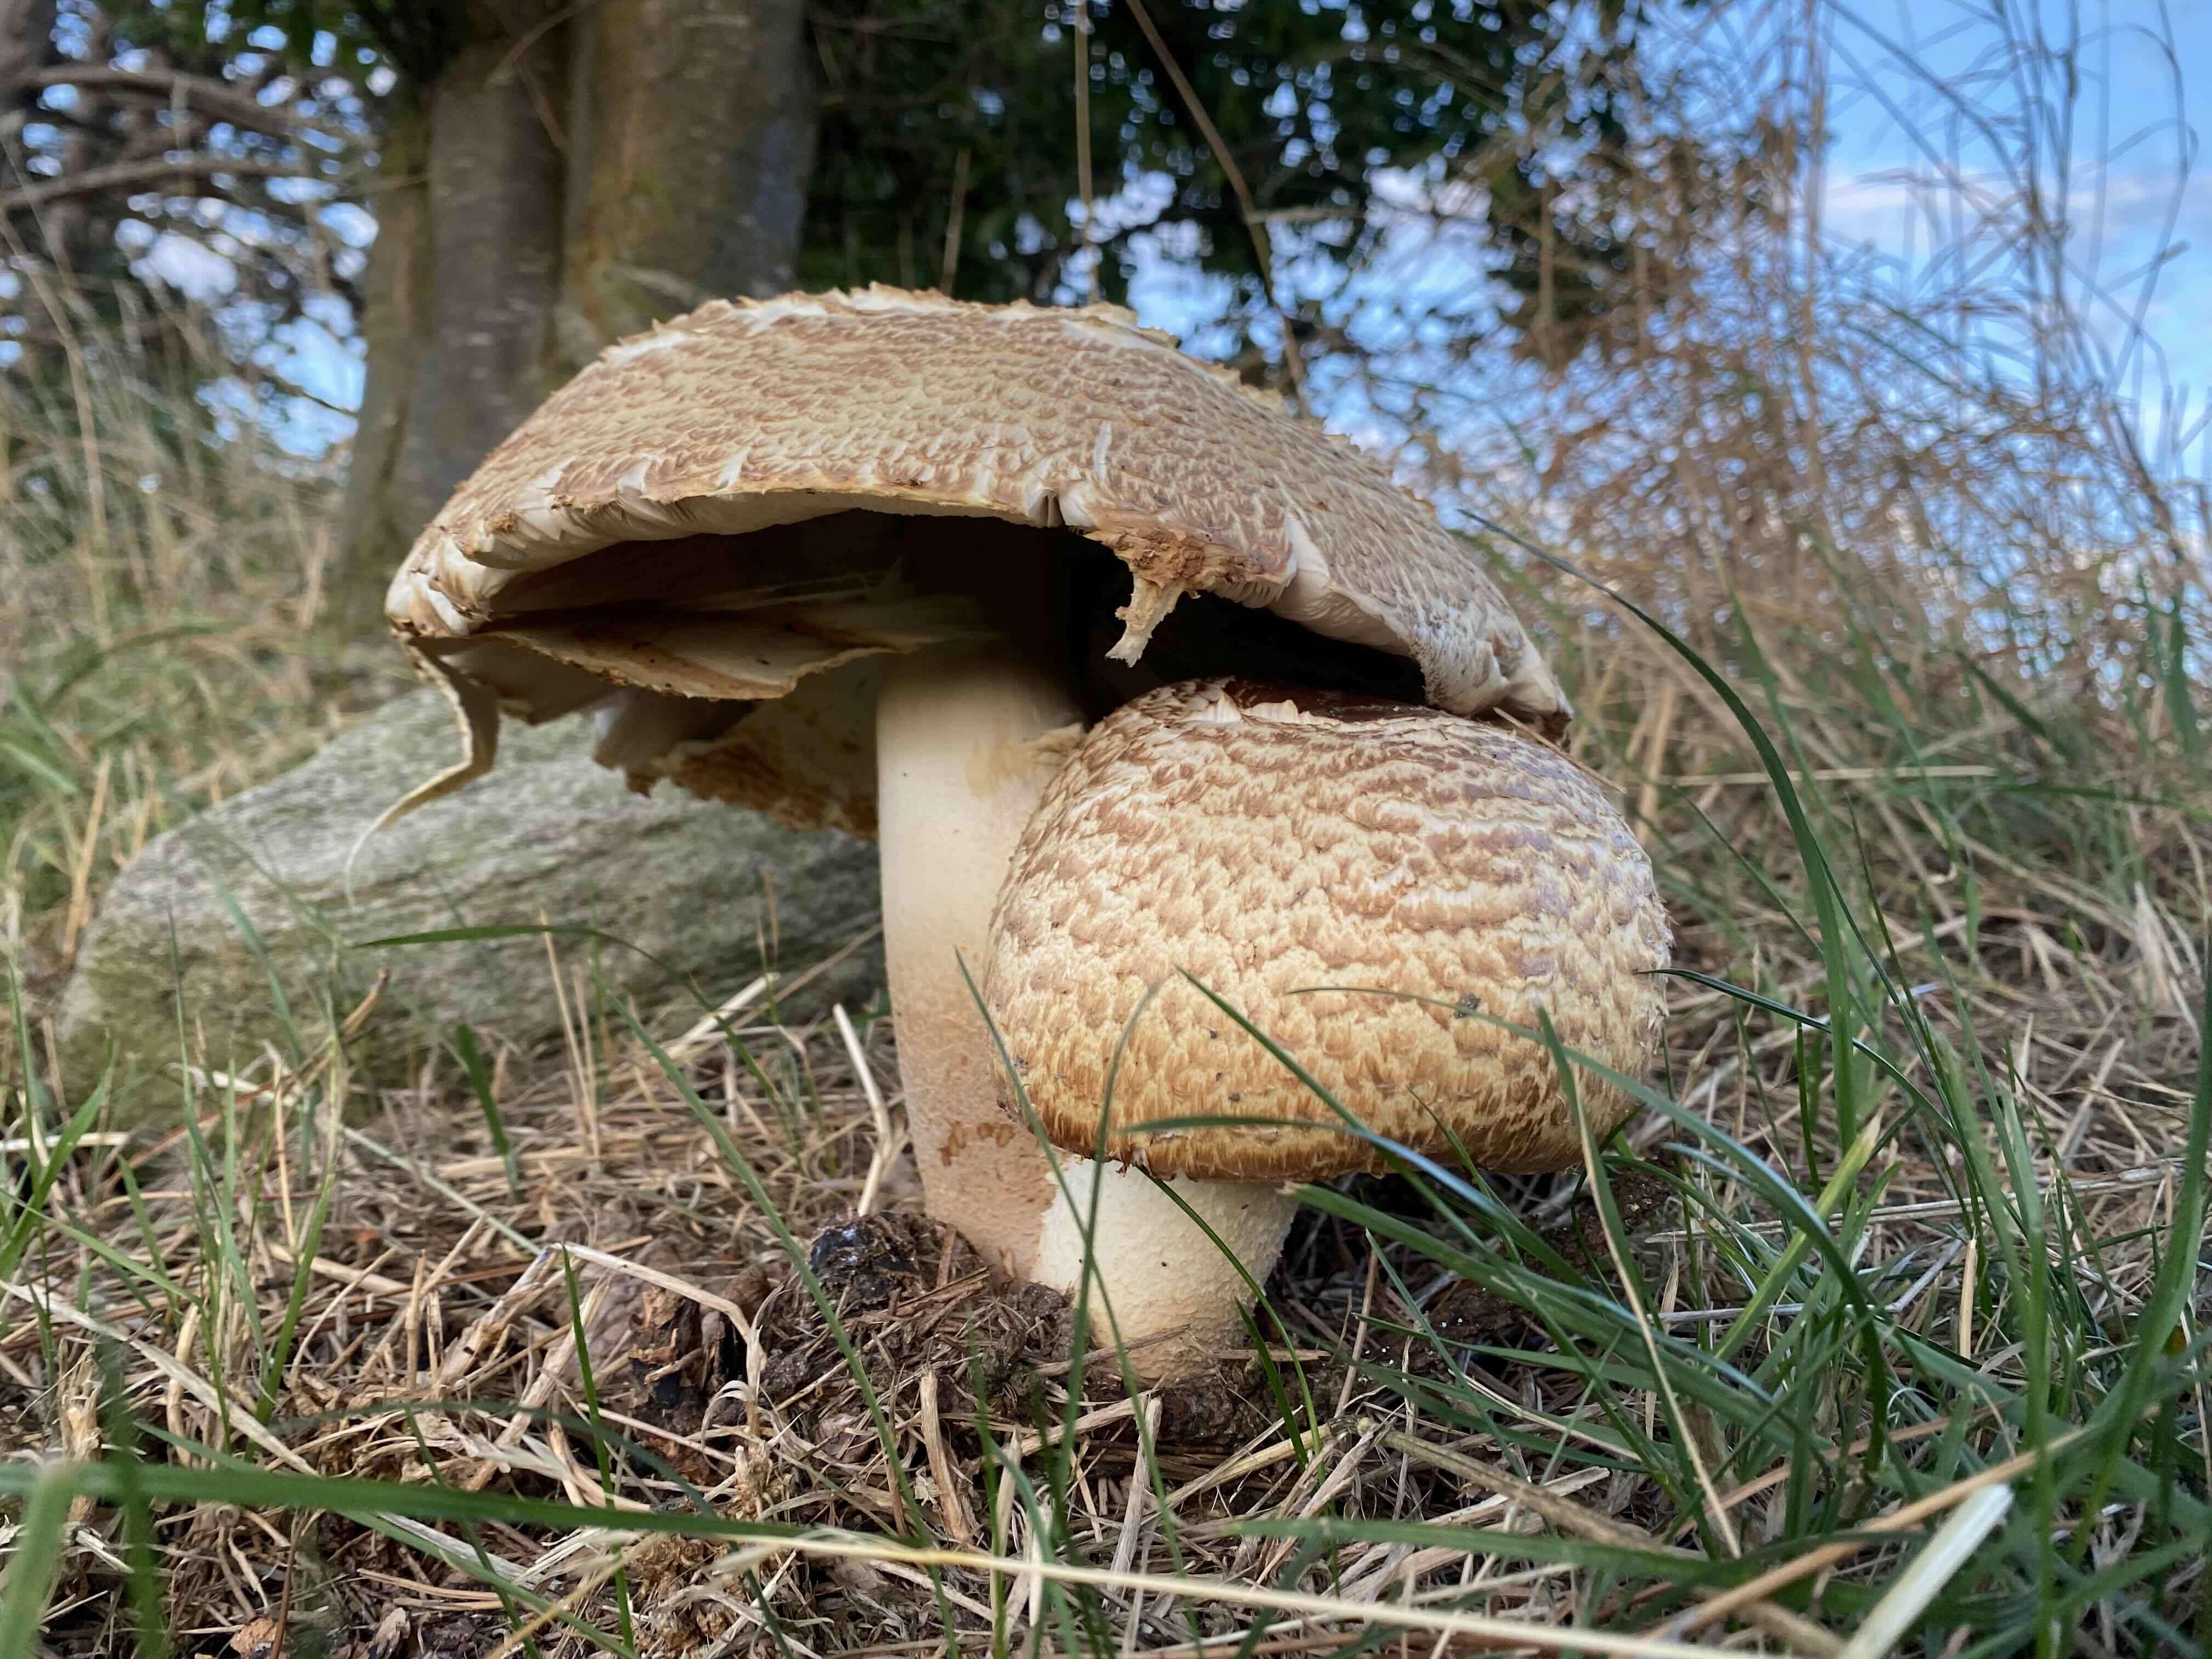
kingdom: Fungi
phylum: Basidiomycota
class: Agaricomycetes
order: Agaricales
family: Agaricaceae
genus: Agaricus
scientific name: Agaricus augustus
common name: prægtig champignon
